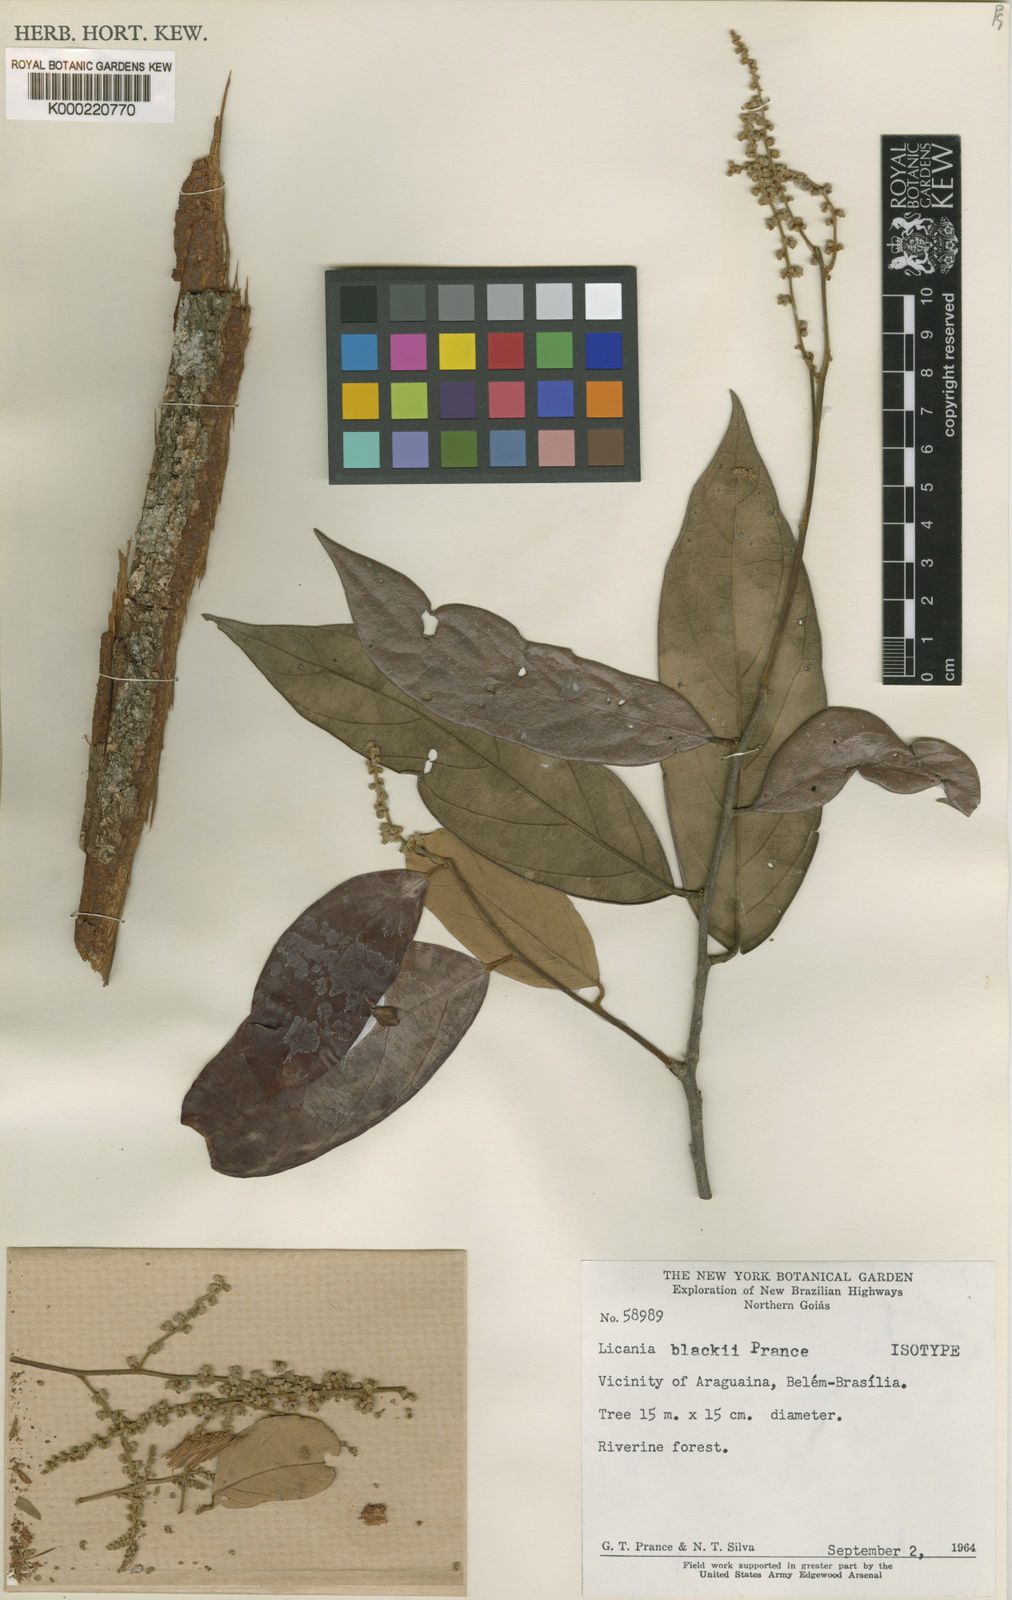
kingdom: Plantae
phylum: Tracheophyta
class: Magnoliopsida
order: Malpighiales
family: Chrysobalanaceae
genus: Licania
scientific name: Licania blackii
